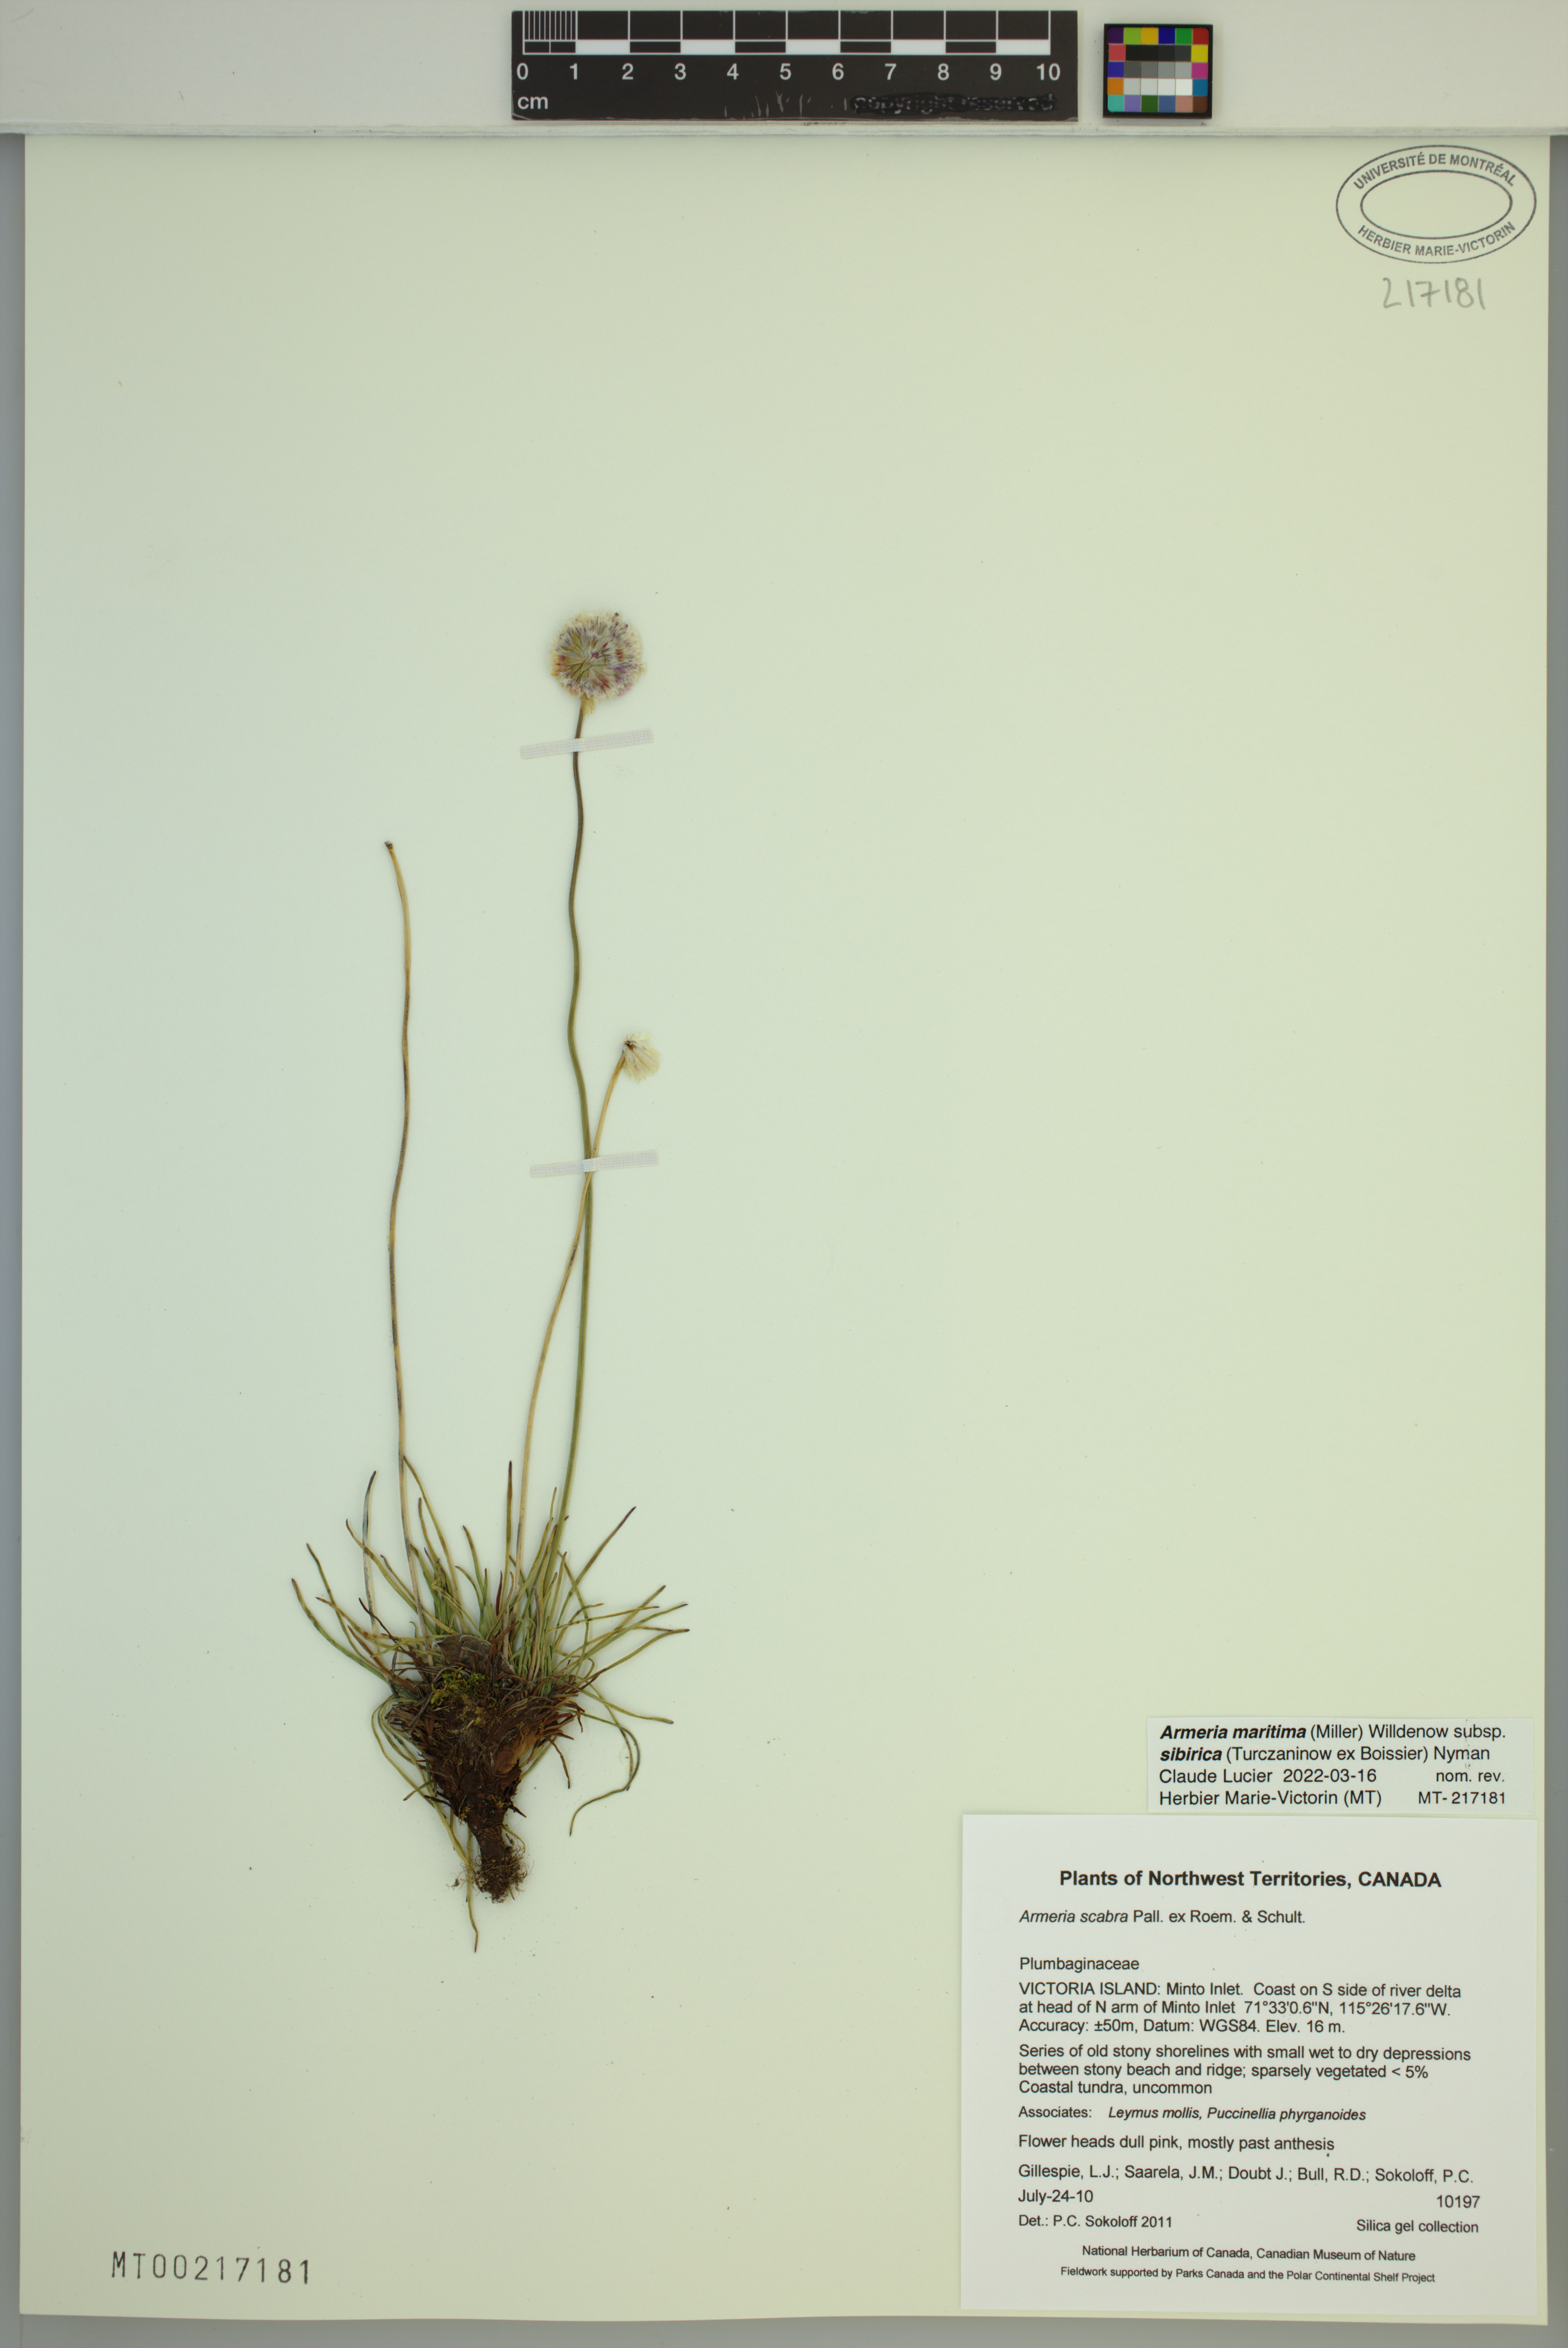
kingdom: Plantae
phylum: Tracheophyta
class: Magnoliopsida
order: Caryophyllales
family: Plumbaginaceae
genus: Armeria
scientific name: Armeria maritima
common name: Thrift
